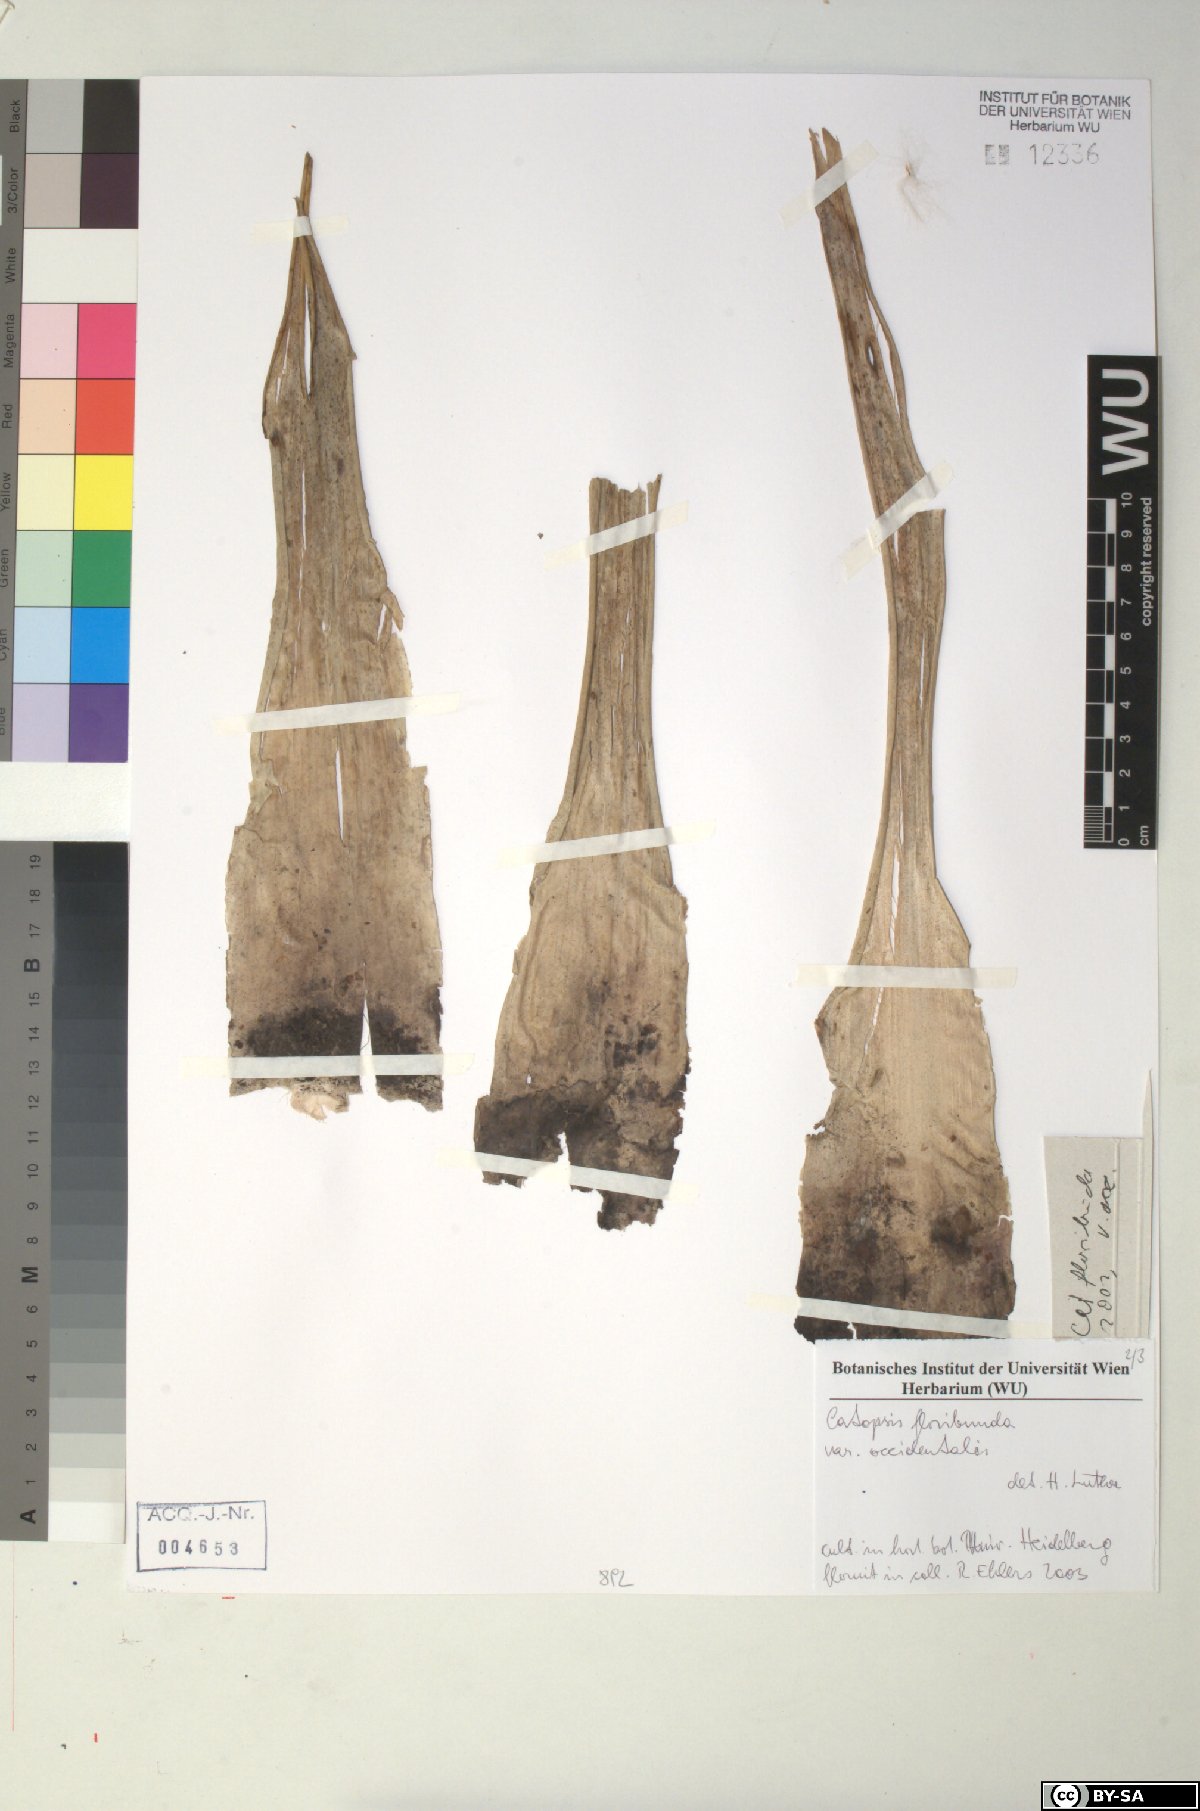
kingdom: Plantae
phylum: Tracheophyta
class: Liliopsida
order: Poales
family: Bromeliaceae
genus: Catopsis
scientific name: Catopsis floribunda
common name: Florida strap airplant
